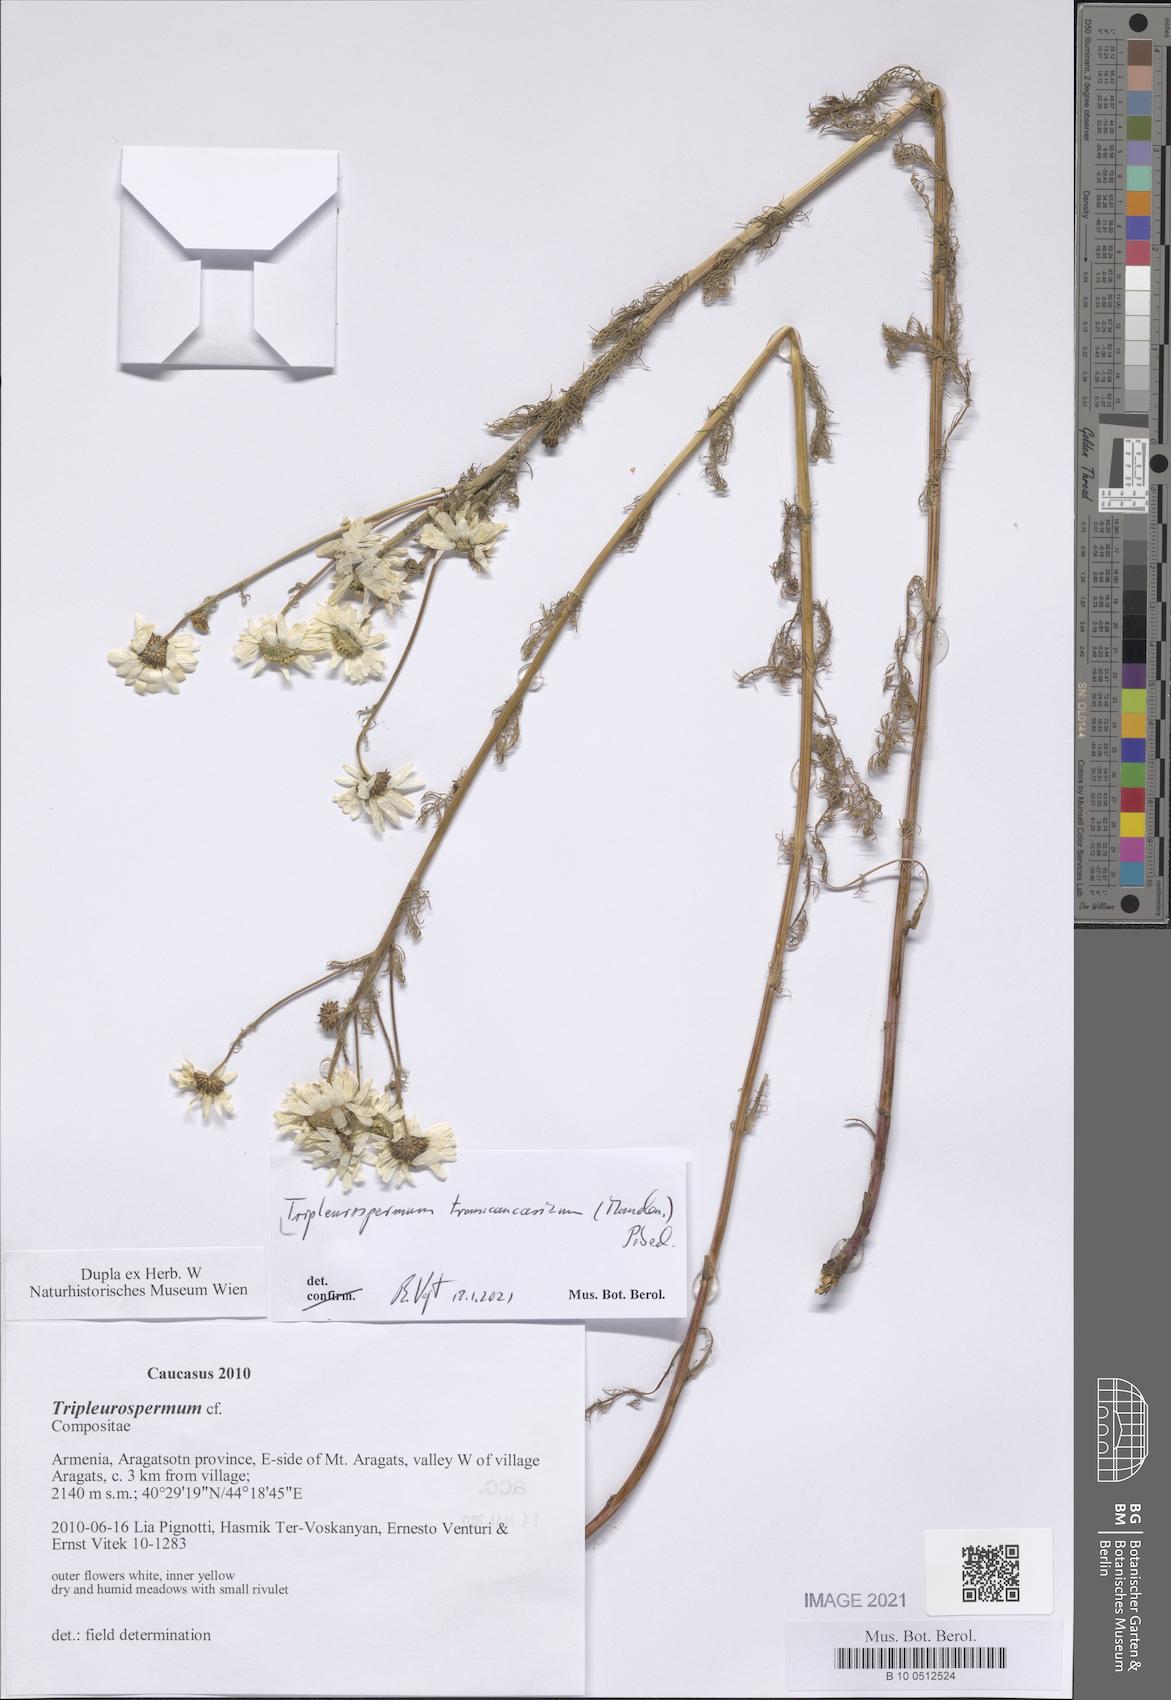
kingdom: Plantae
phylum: Tracheophyta
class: Magnoliopsida
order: Asterales
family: Asteraceae
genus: Tripleurospermum
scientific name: Tripleurospermum transcaucasicum
